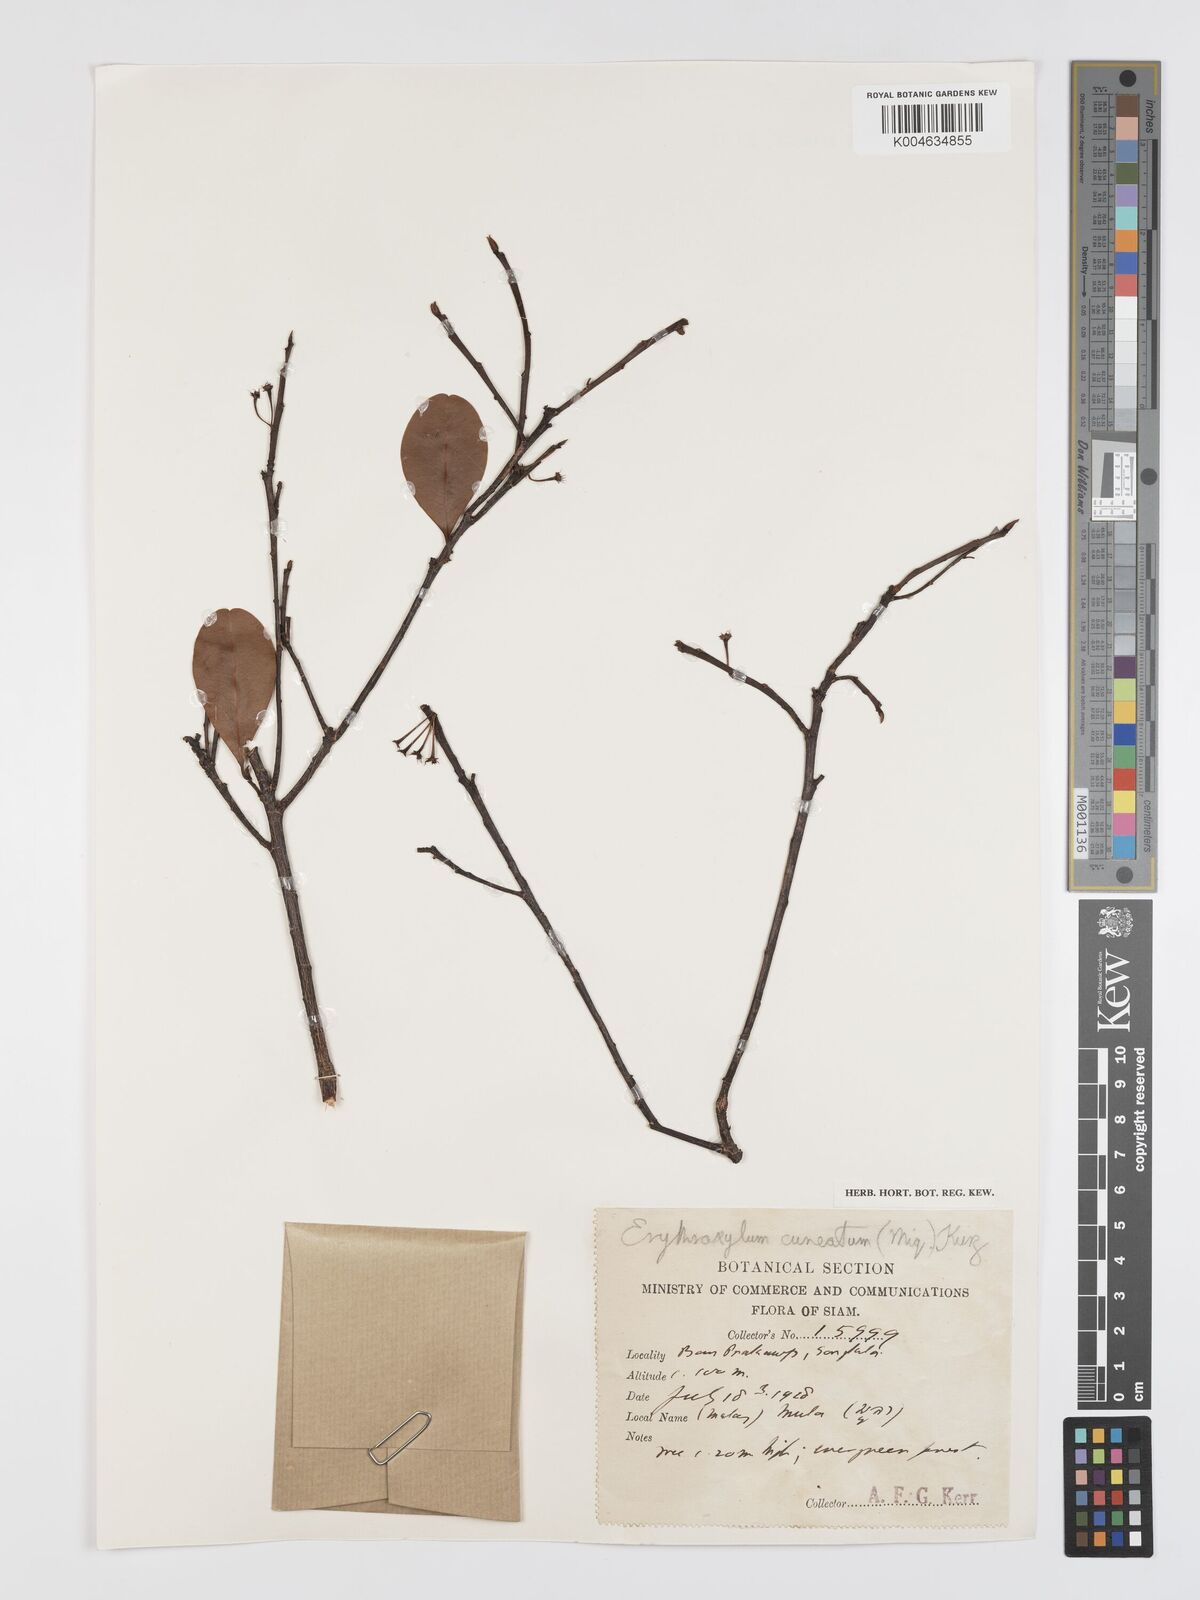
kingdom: Plantae
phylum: Tracheophyta
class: Magnoliopsida
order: Malpighiales
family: Erythroxylaceae
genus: Erythroxylum
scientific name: Erythroxylum cuneatum
